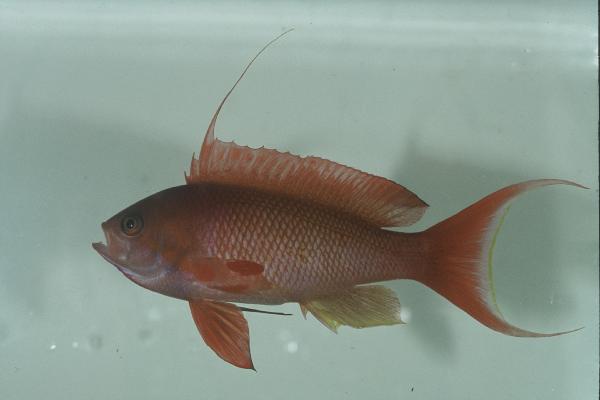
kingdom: Animalia
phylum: Chordata
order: Perciformes
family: Serranidae
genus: Pseudanthias
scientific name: Pseudanthias squamipinnis
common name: Scalefin anthias
